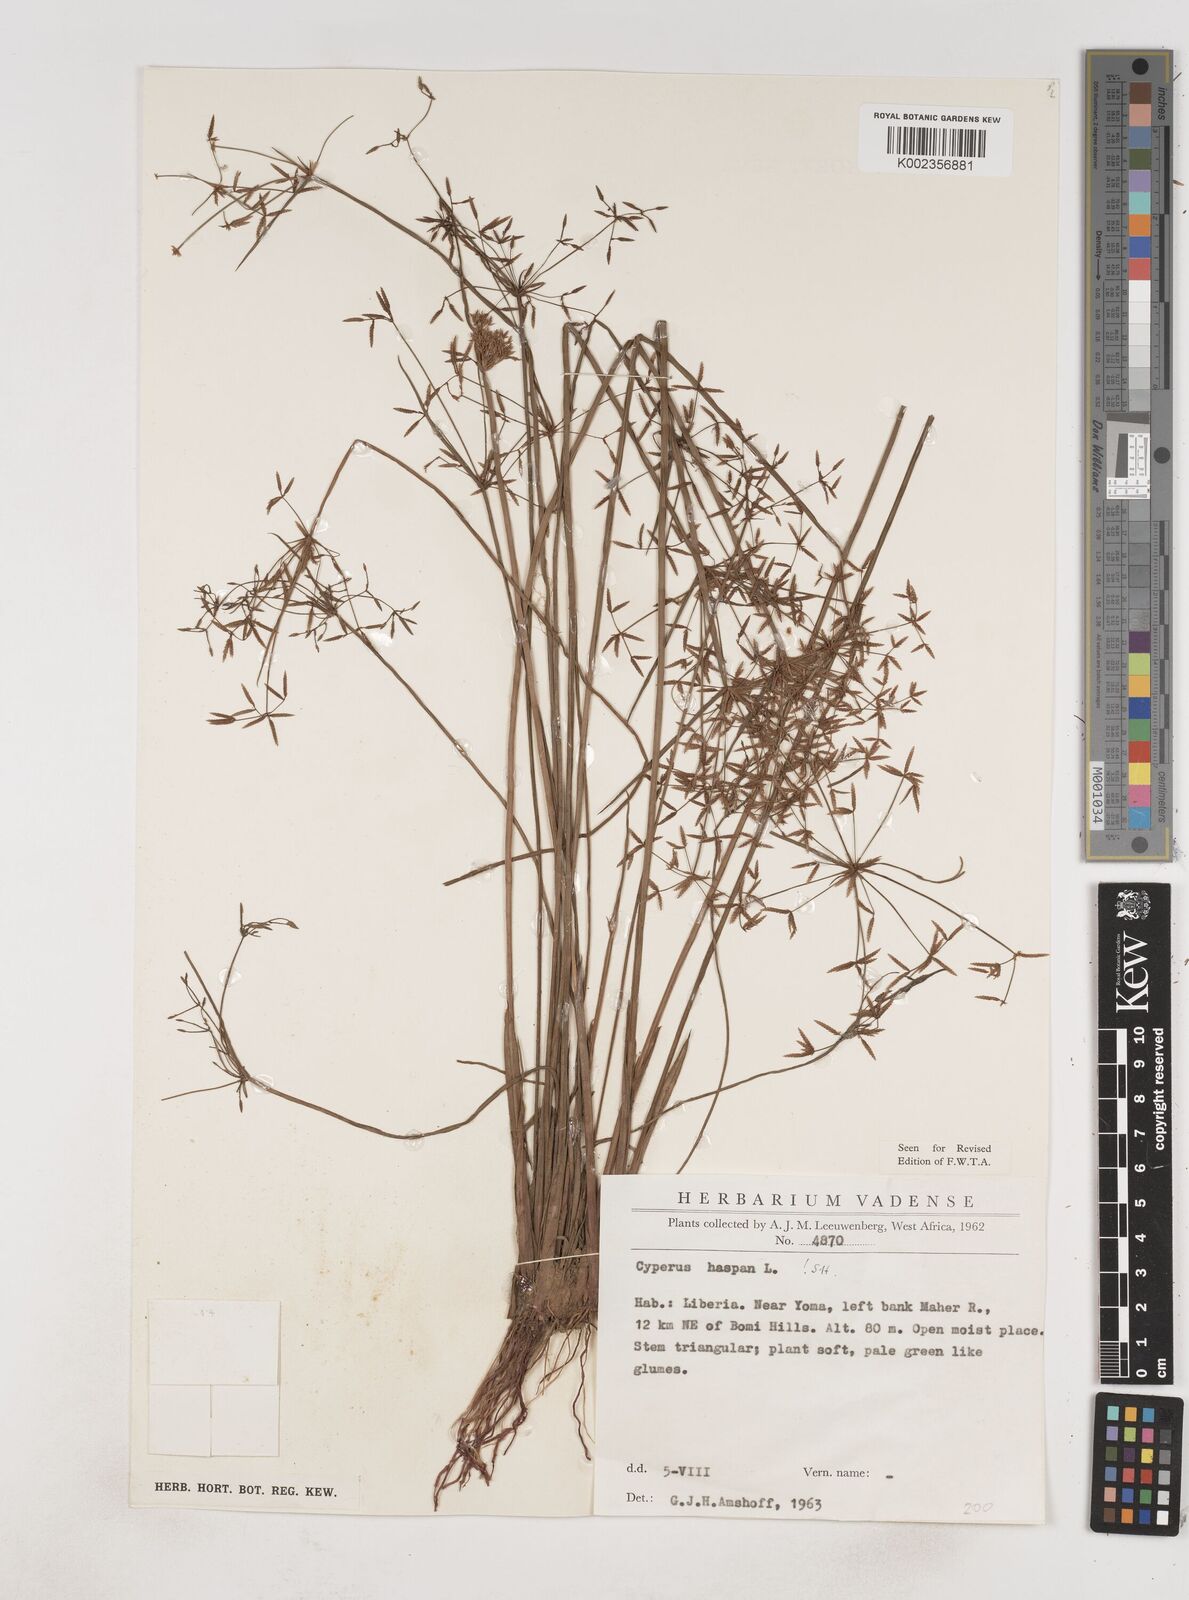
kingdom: Plantae
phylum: Tracheophyta
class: Liliopsida
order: Poales
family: Cyperaceae
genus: Cyperus
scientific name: Cyperus haspan
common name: Haspan flatsedge
